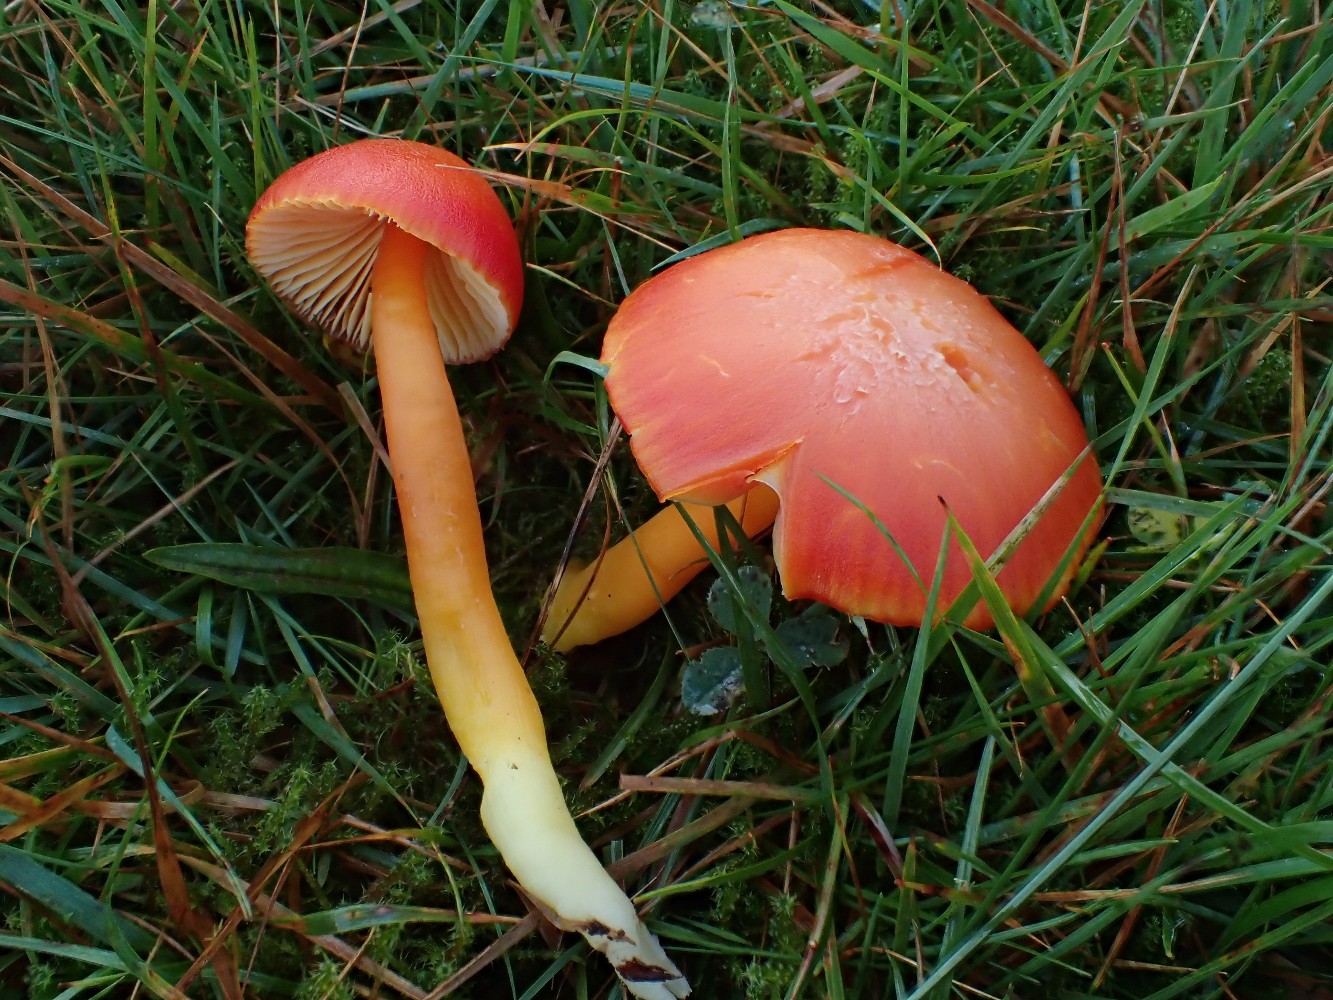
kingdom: Fungi
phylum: Basidiomycota
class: Agaricomycetes
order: Agaricales
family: Hygrophoraceae
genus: Hygrocybe
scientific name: Hygrocybe splendidissima
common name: knaldrød vokshat
